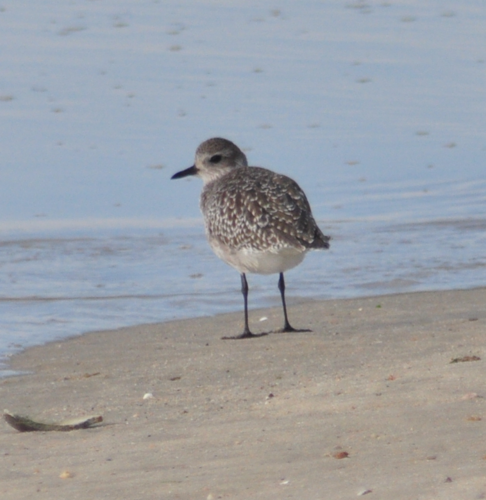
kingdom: Animalia
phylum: Chordata
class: Aves
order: Charadriiformes
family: Charadriidae
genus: Pluvialis
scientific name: Pluvialis squatarola
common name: Grey plover
